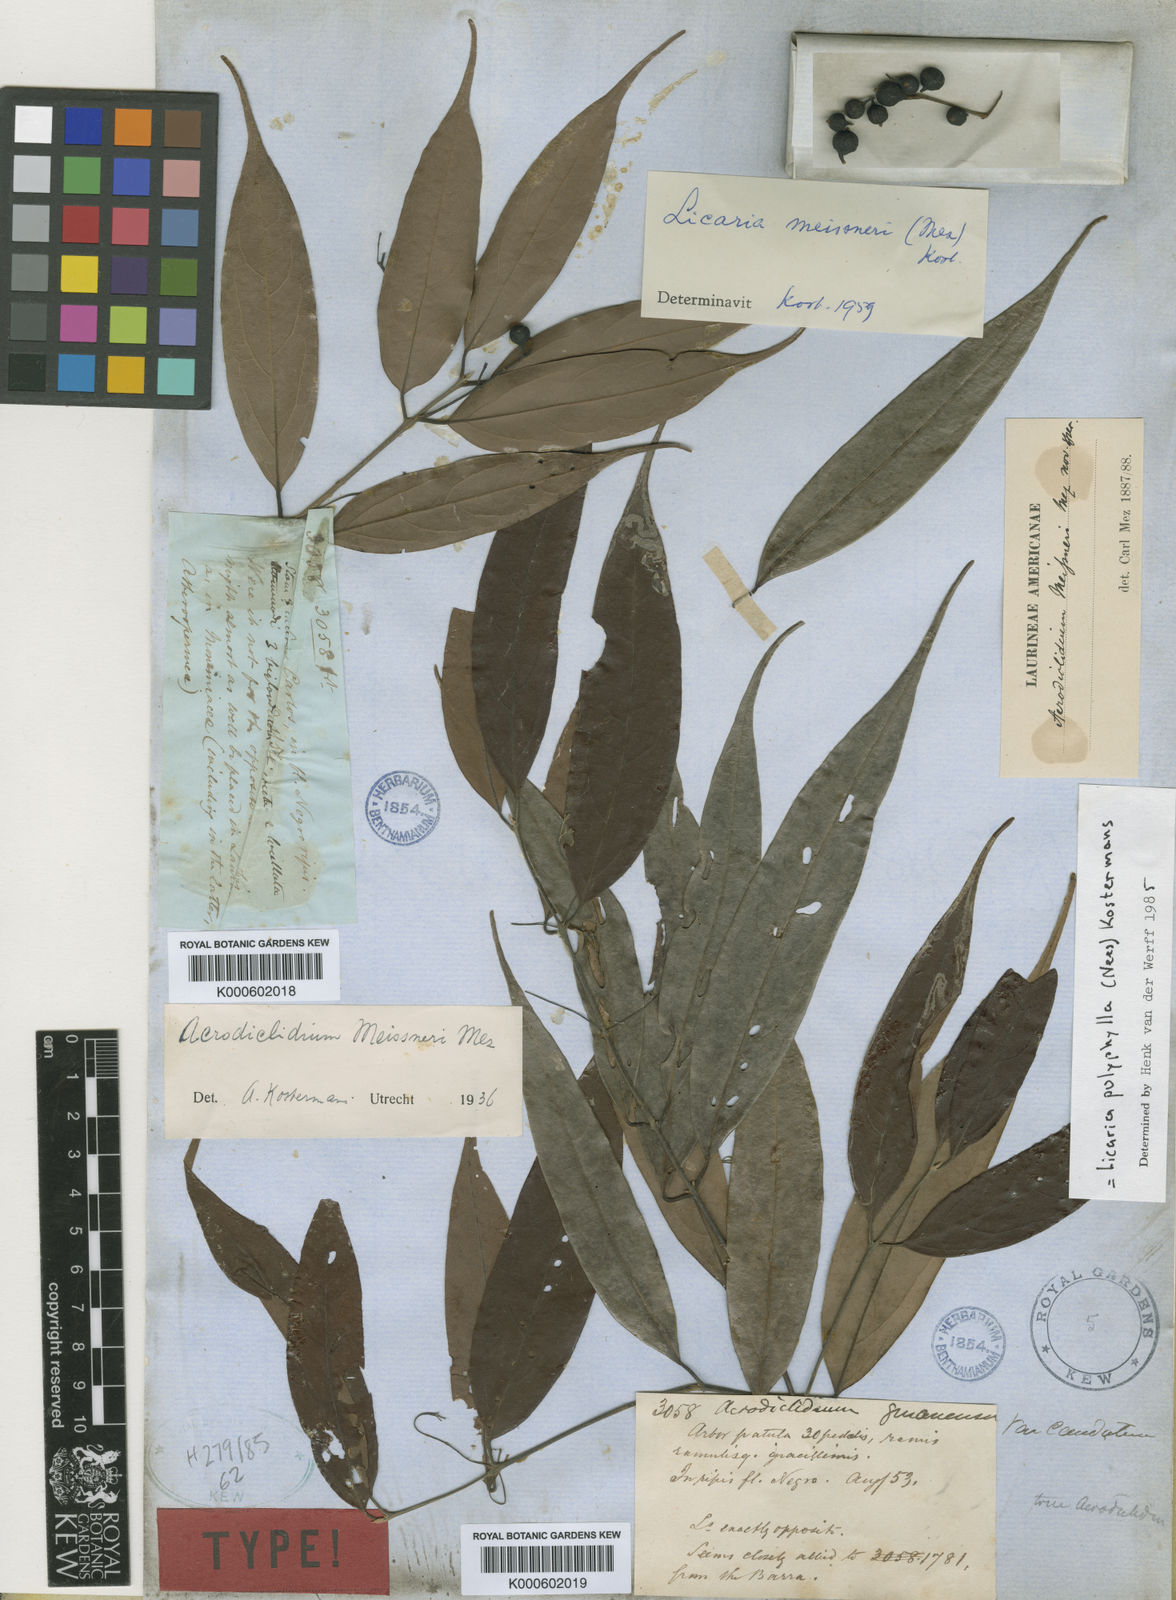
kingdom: Plantae
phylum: Tracheophyta
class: Magnoliopsida
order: Laurales
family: Lauraceae
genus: Licaria
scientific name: Licaria polyphylla
